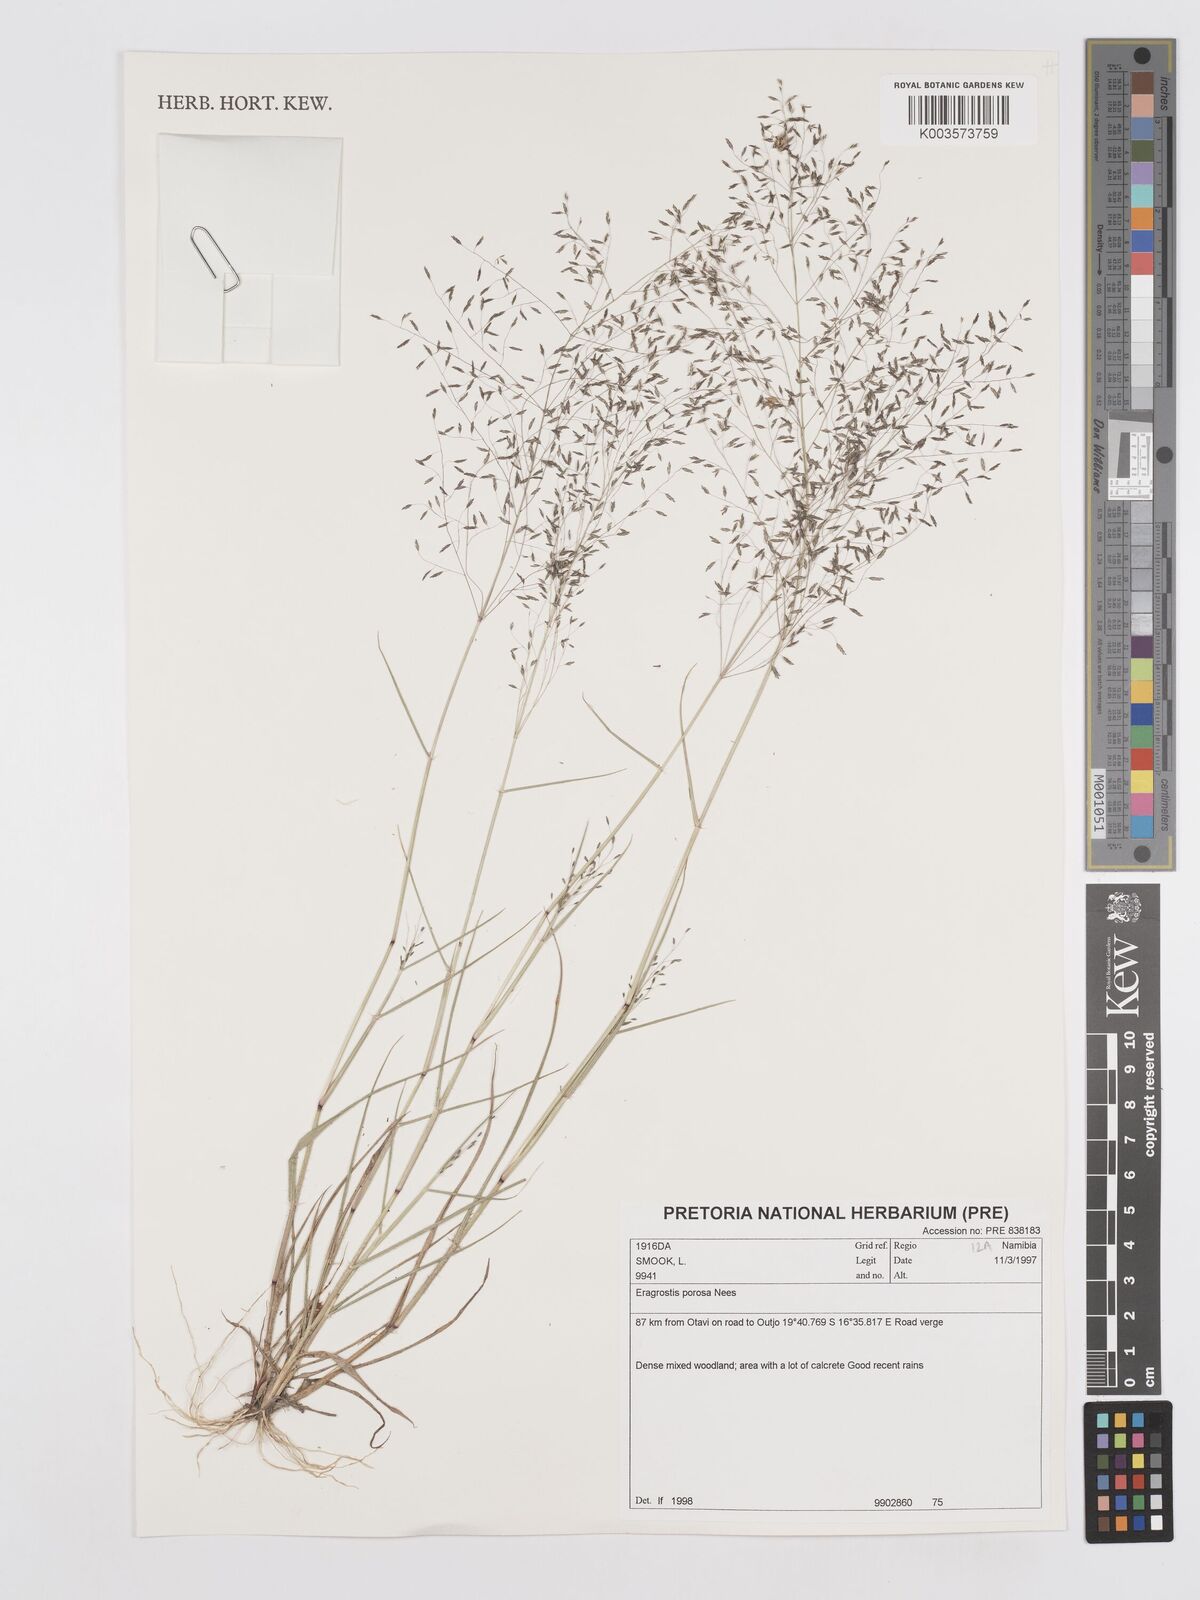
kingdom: Plantae
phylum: Tracheophyta
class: Liliopsida
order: Poales
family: Poaceae
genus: Eragrostis
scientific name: Eragrostis porosa
